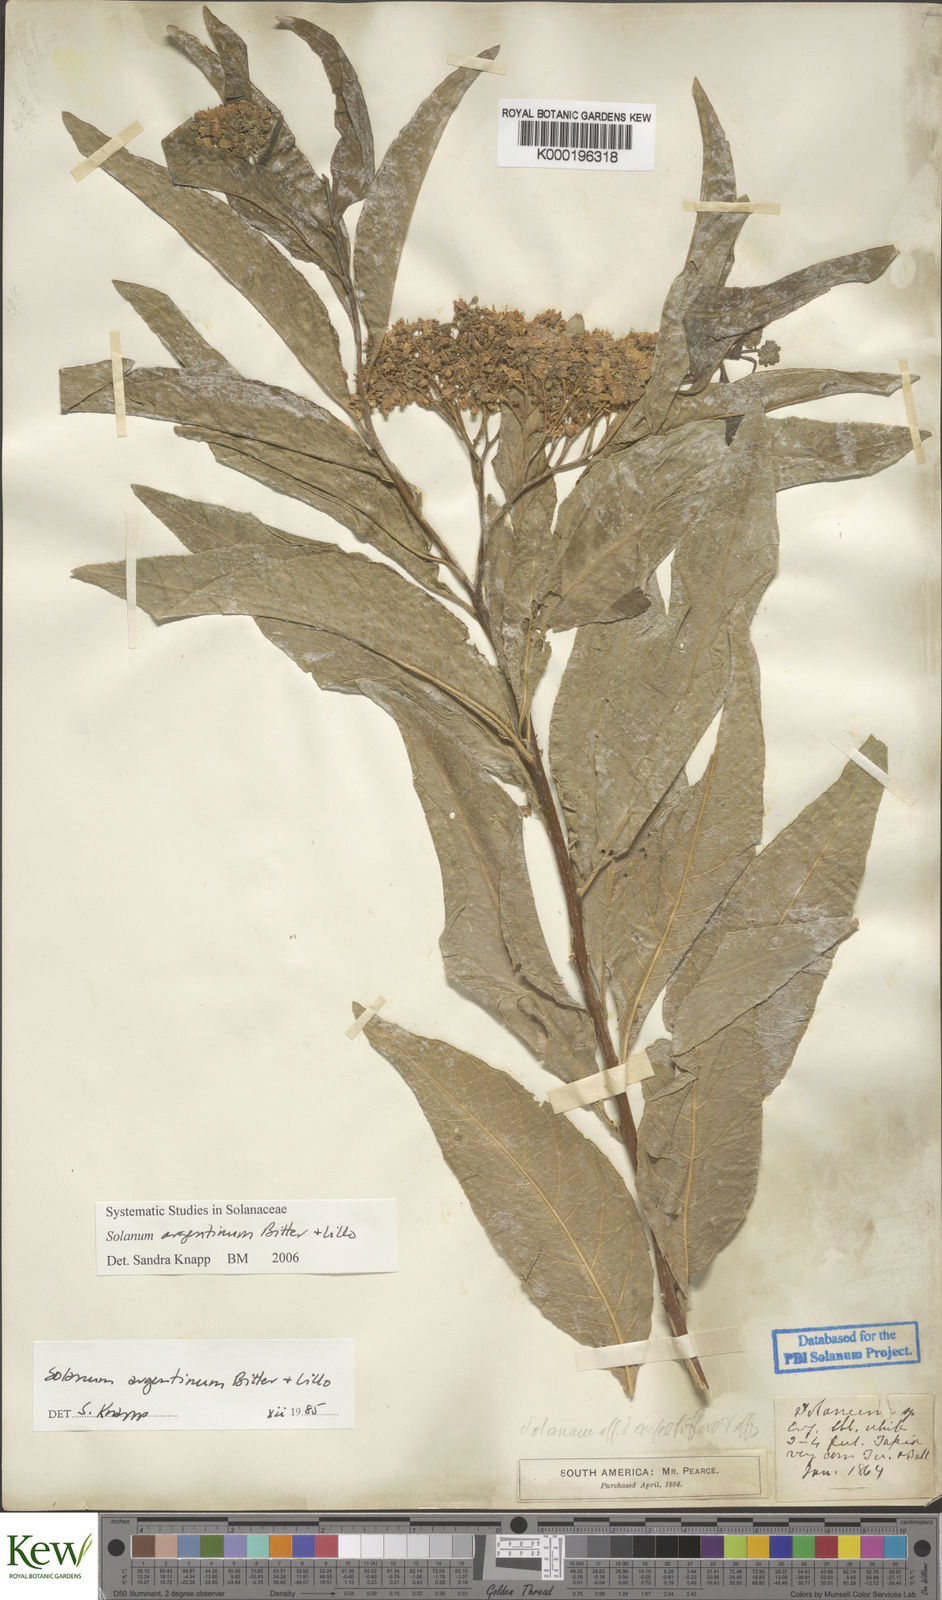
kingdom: Plantae
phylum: Tracheophyta
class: Magnoliopsida
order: Solanales
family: Solanaceae
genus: Solanum
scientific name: Solanum argentinum
